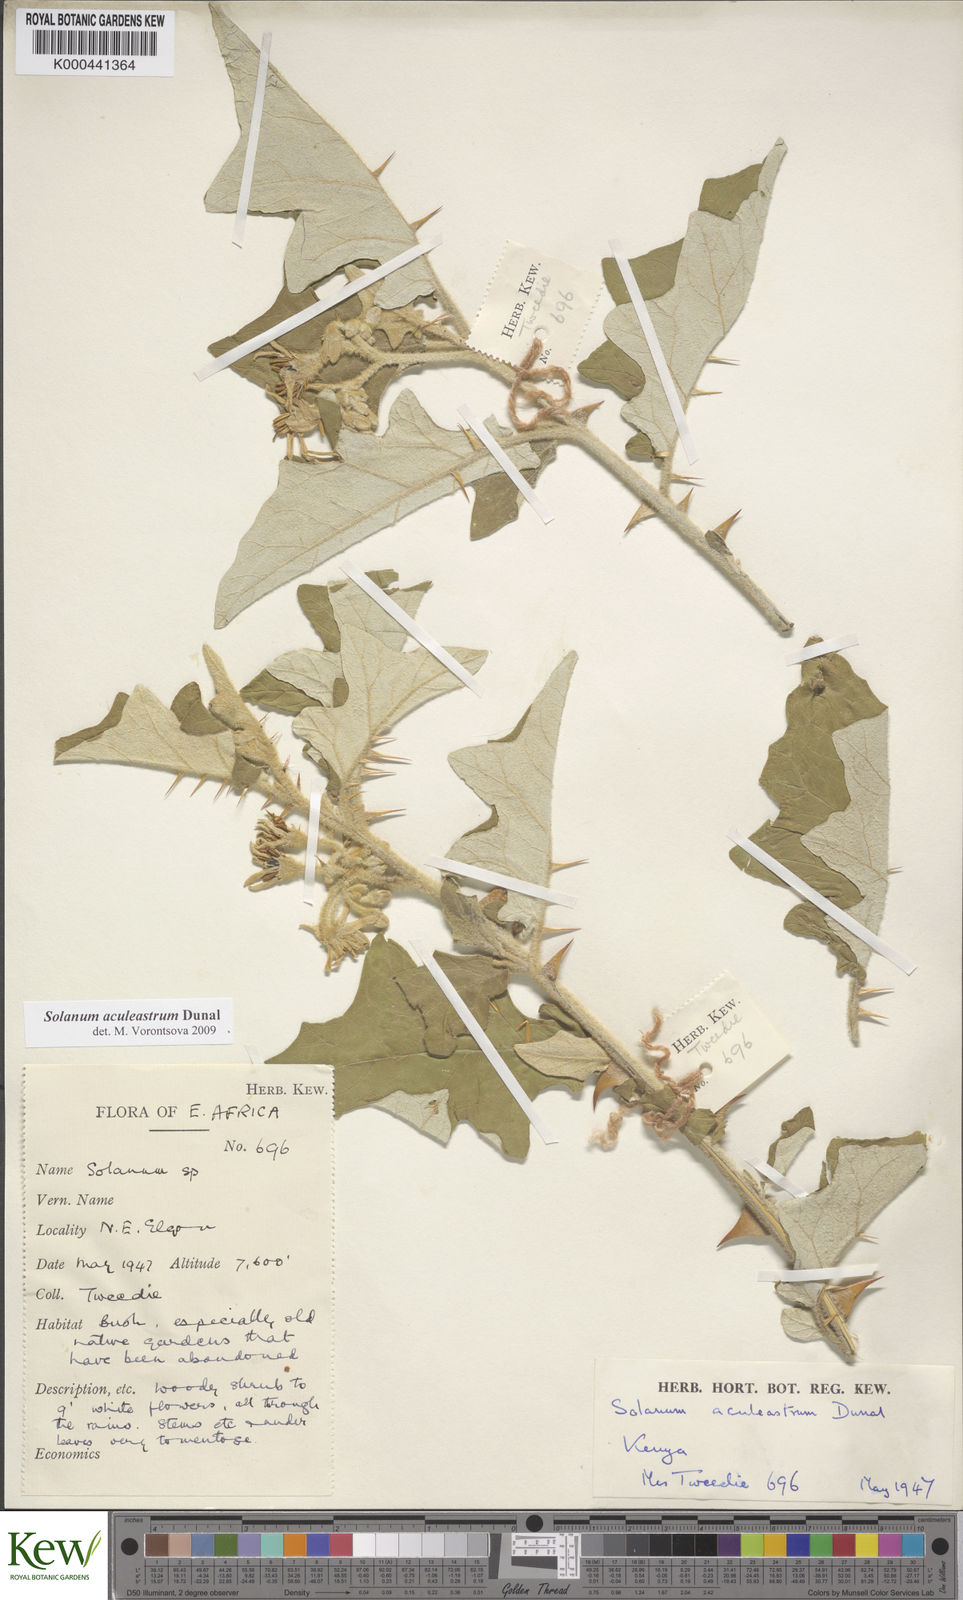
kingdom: Plantae
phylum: Tracheophyta
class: Magnoliopsida
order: Solanales
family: Solanaceae
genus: Solanum
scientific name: Solanum aculeastrum
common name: Goat bitter-apple
